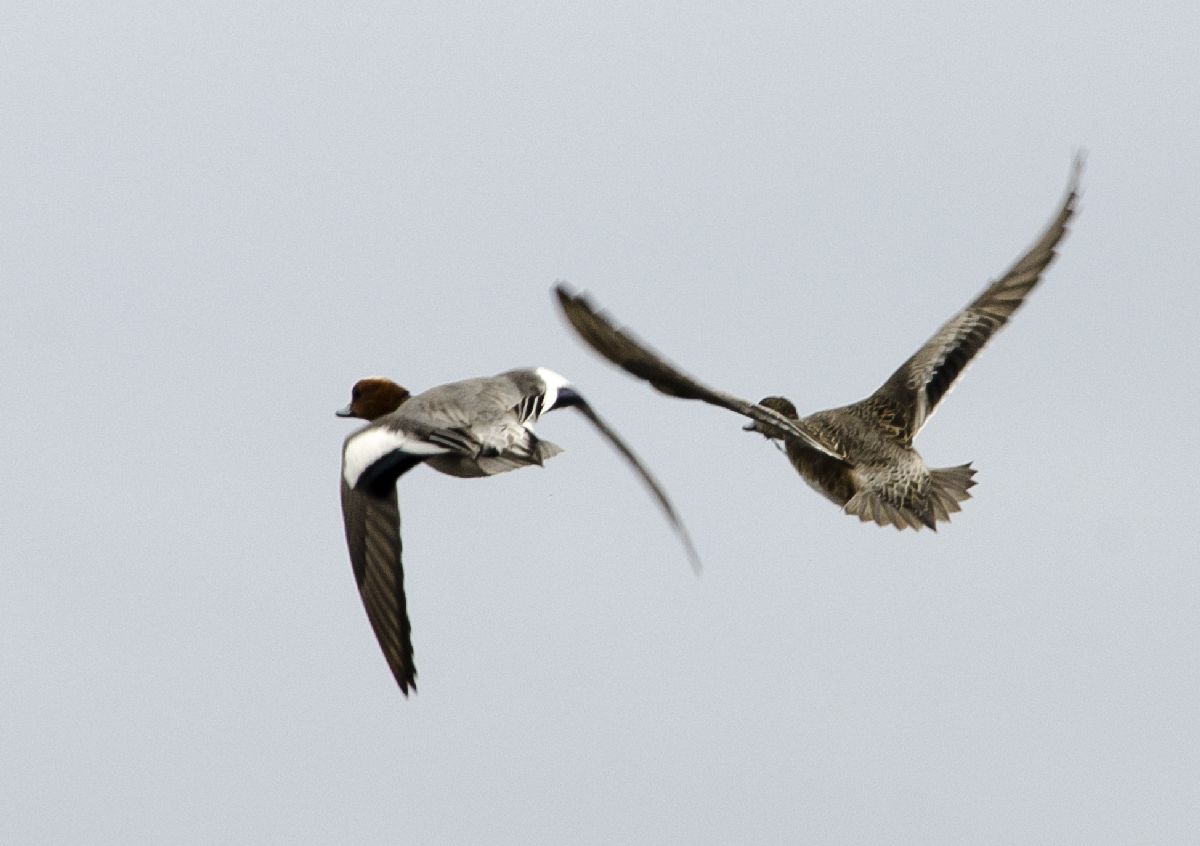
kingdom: Animalia
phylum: Chordata
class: Aves
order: Anseriformes
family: Anatidae
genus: Mareca
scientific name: Mareca penelope
